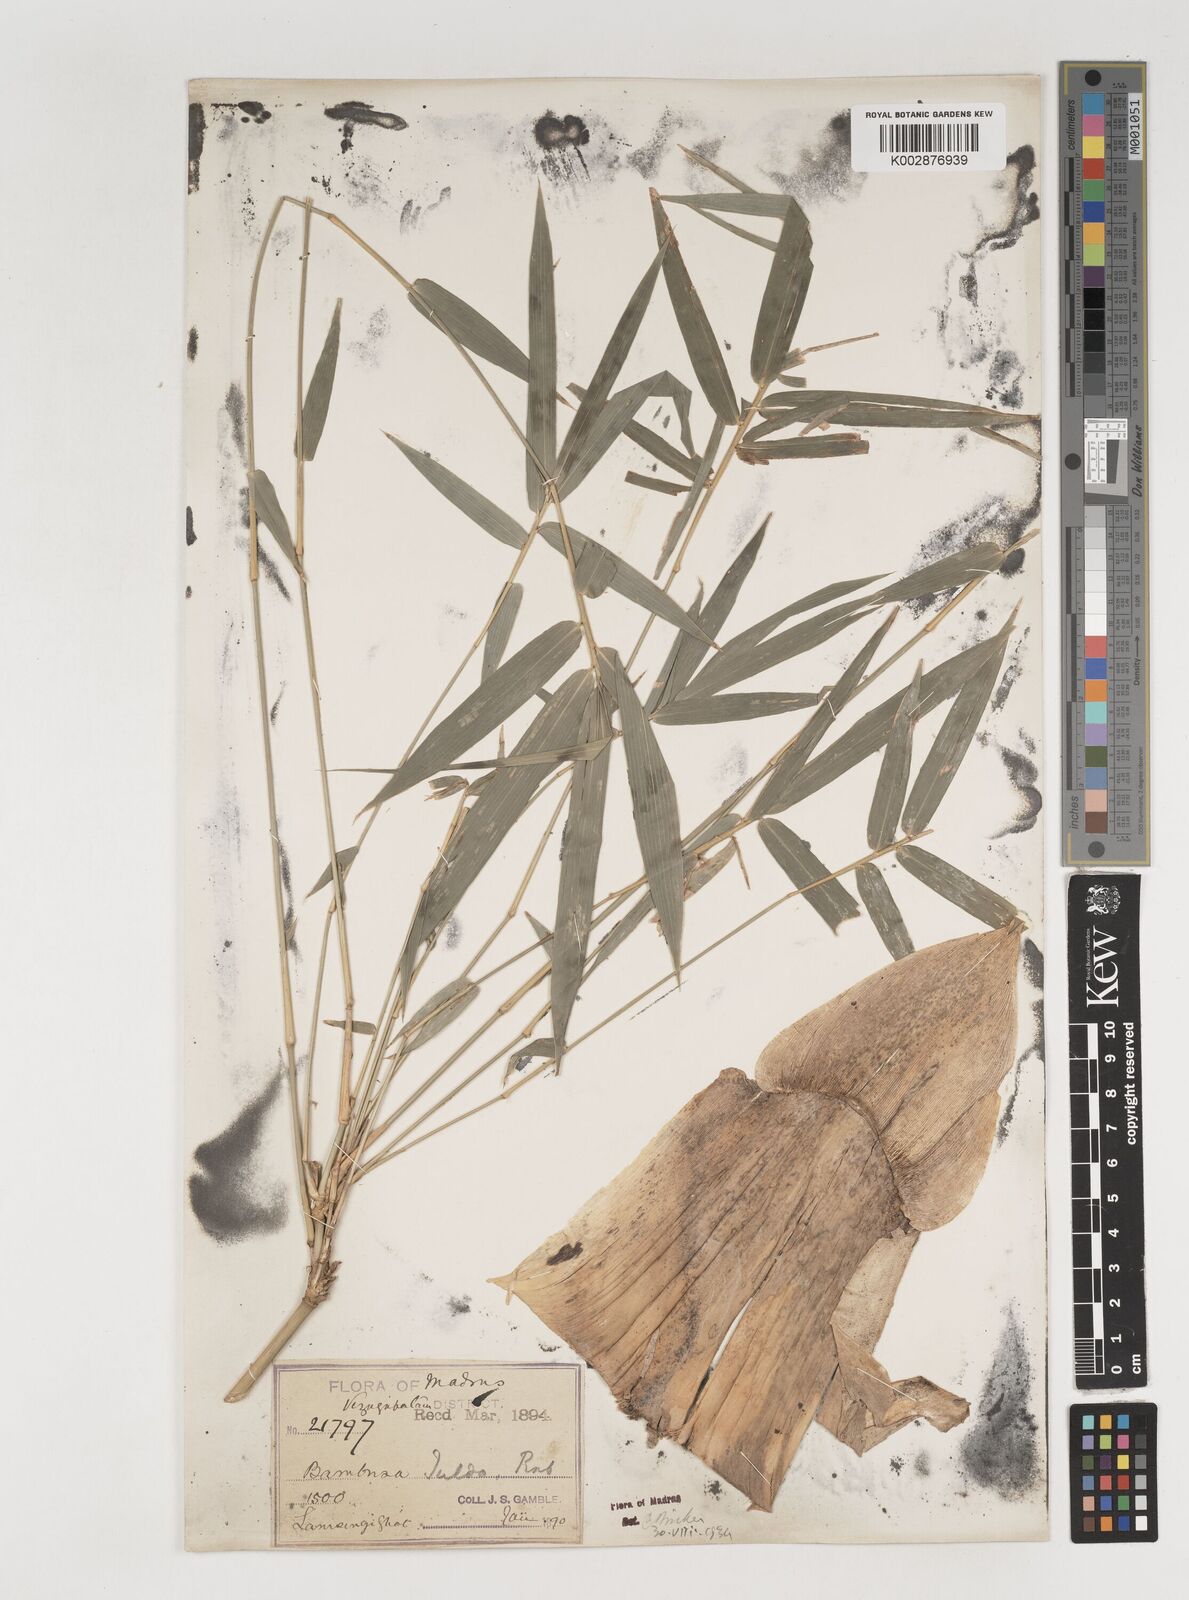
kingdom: Plantae
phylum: Tracheophyta
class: Liliopsida
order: Poales
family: Poaceae
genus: Bambusa
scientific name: Bambusa tulda
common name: Bengal bamboo
